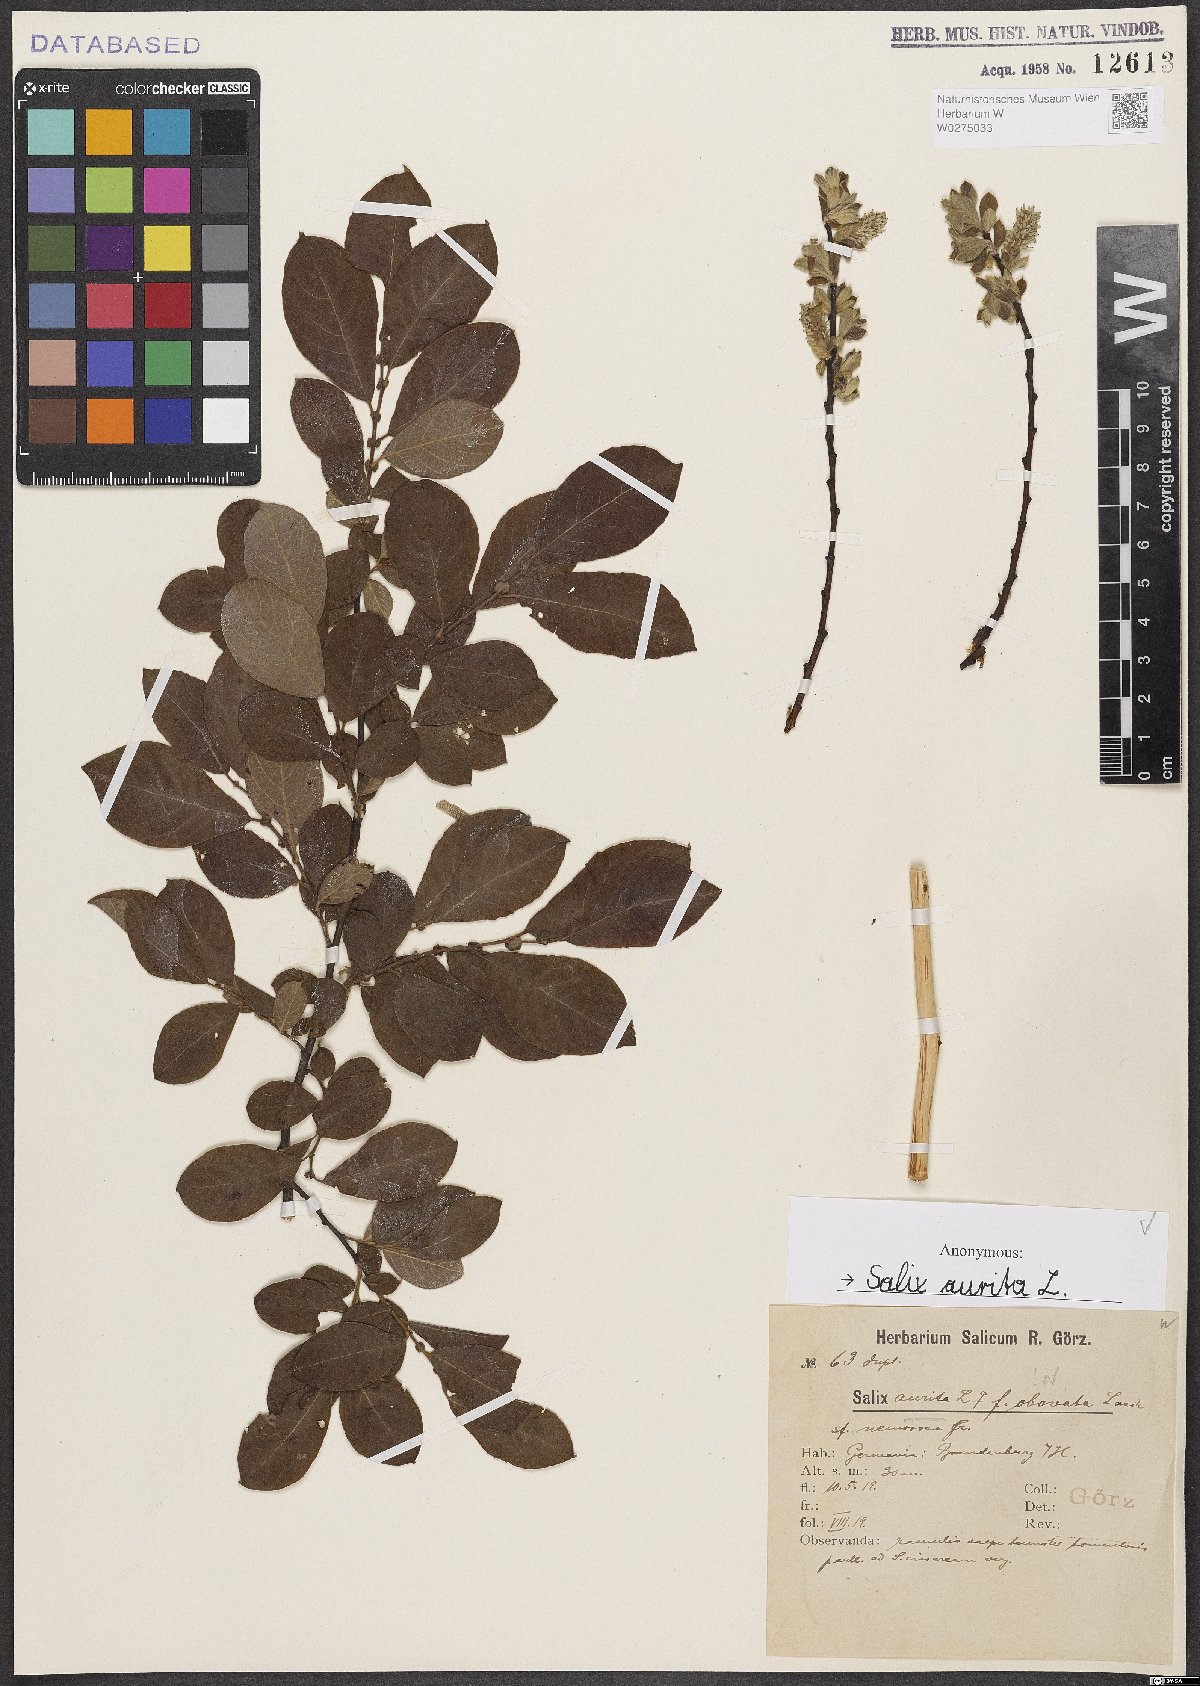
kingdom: Plantae
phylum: Tracheophyta
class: Magnoliopsida
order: Malpighiales
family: Salicaceae
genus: Salix
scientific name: Salix aurita
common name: Eared willow
